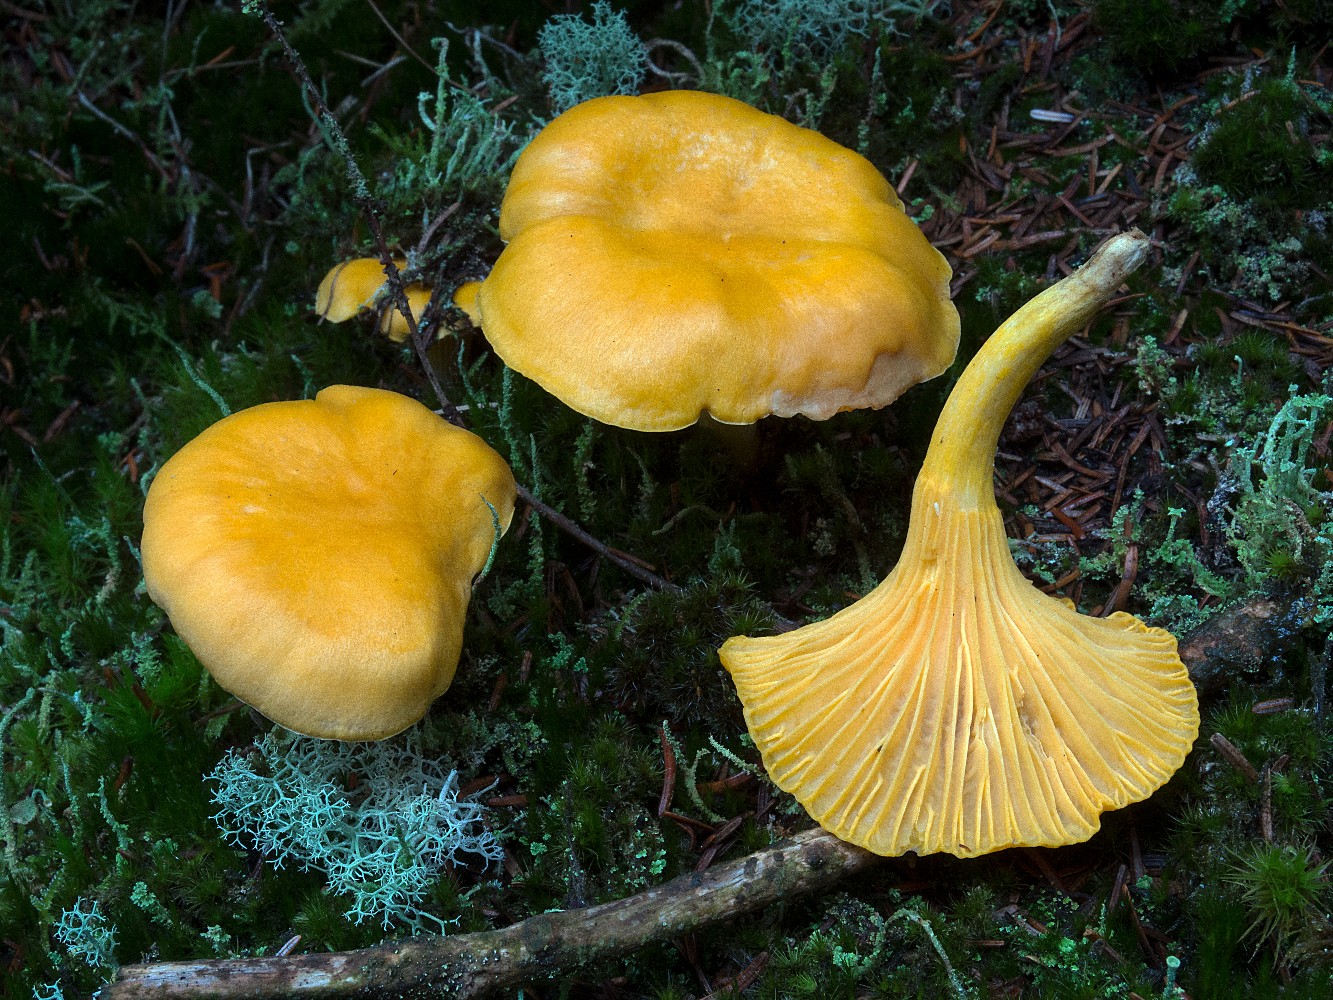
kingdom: Fungi
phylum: Basidiomycota
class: Agaricomycetes
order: Cantharellales
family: Hydnaceae
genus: Cantharellus
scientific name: Cantharellus cibarius
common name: almindelig kantarel
